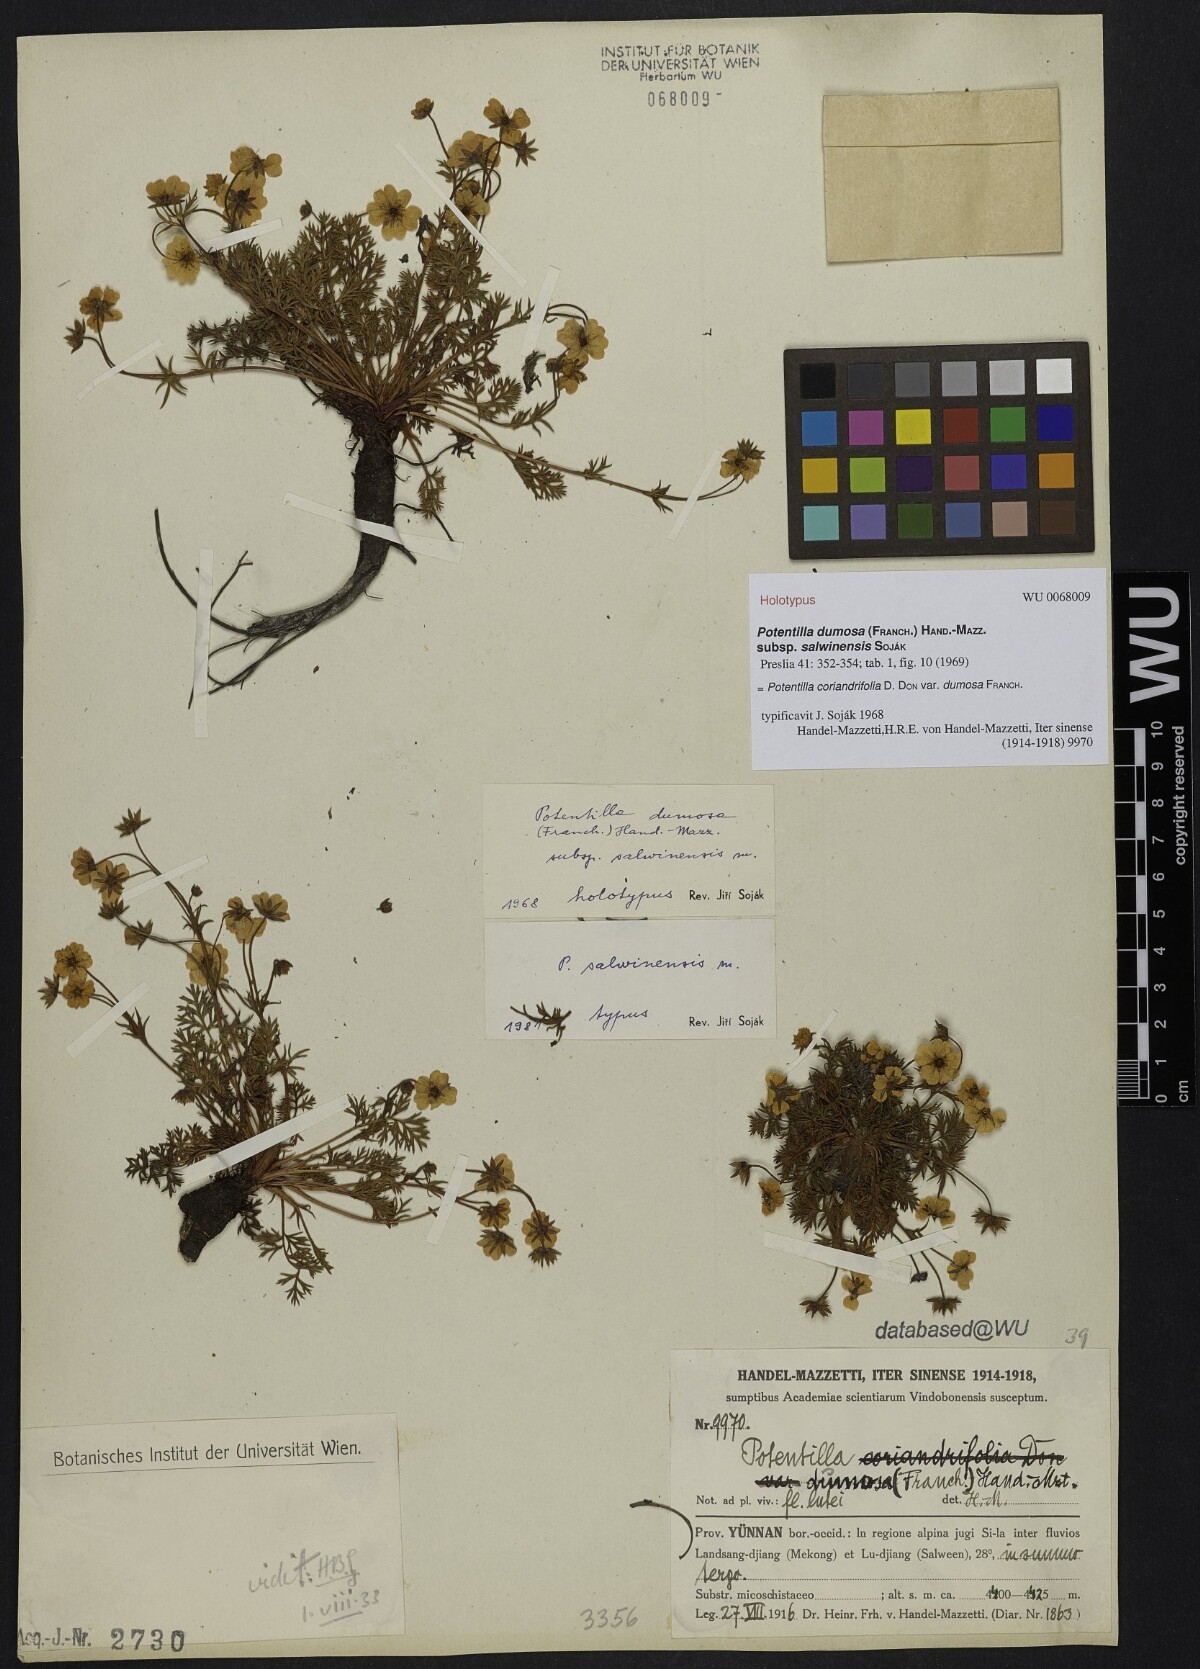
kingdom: Plantae
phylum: Tracheophyta
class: Magnoliopsida
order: Rosales
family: Rosaceae
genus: Potentilla
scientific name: Potentilla coriandrifolia
